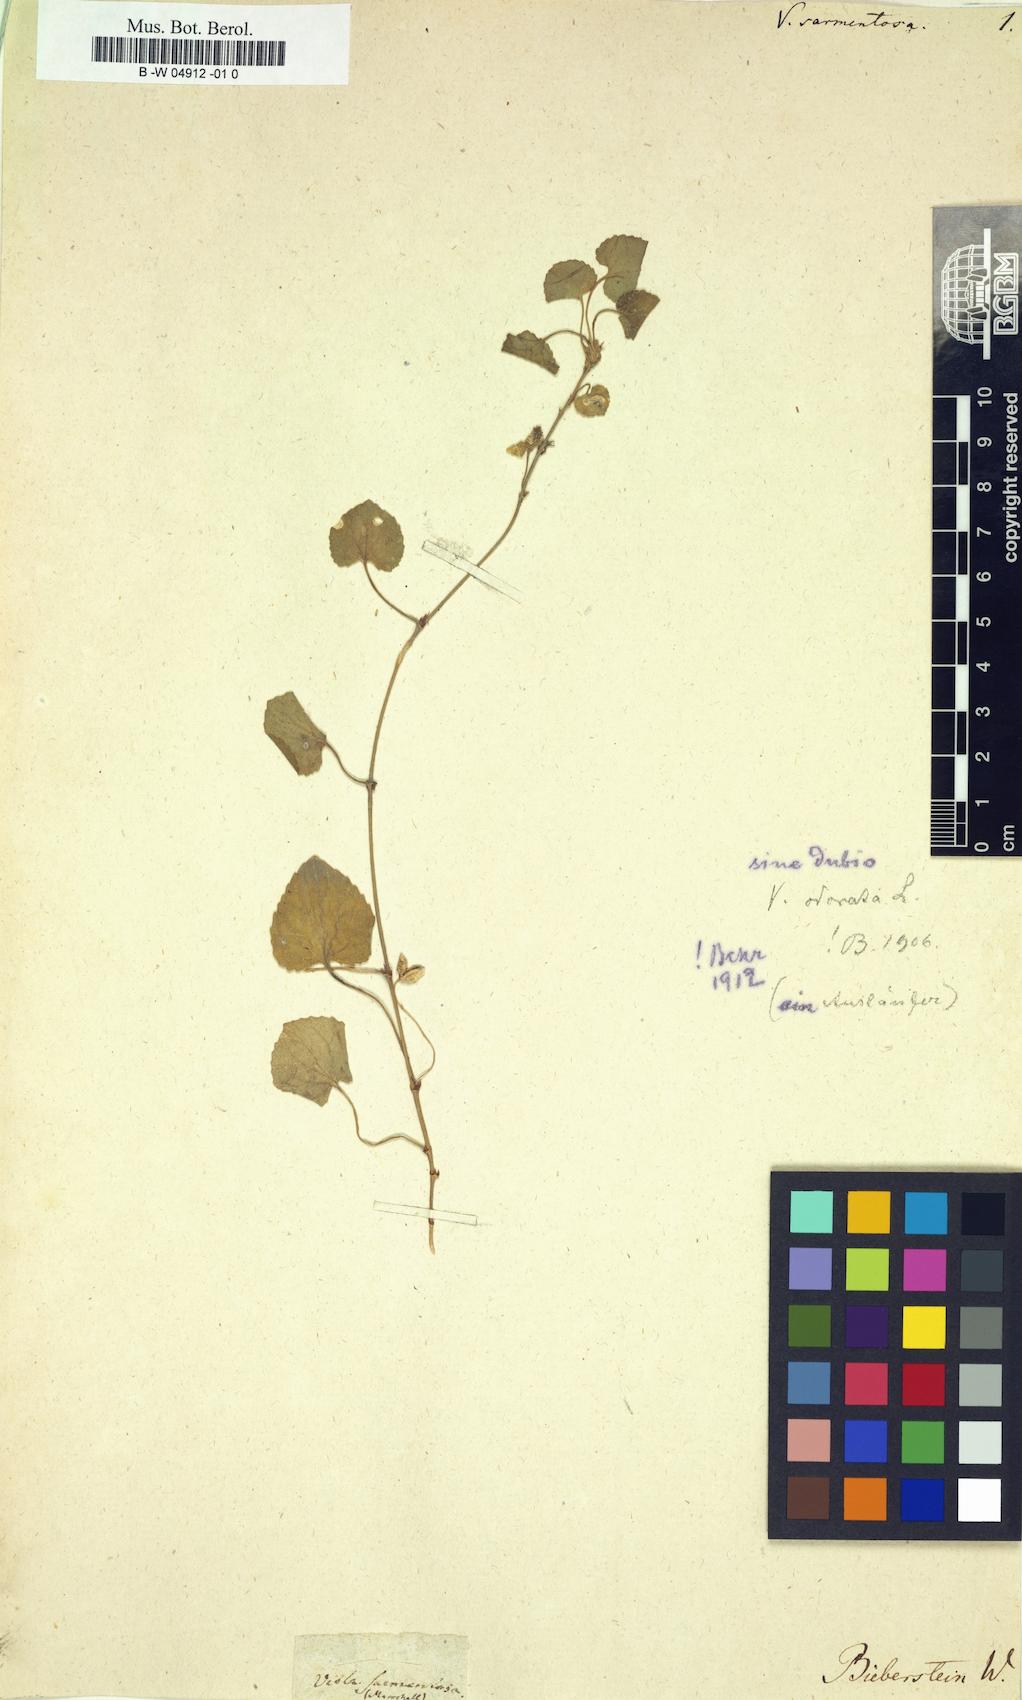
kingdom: Plantae
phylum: Tracheophyta
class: Magnoliopsida
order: Malpighiales
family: Violaceae
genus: Viola
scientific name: Viola
